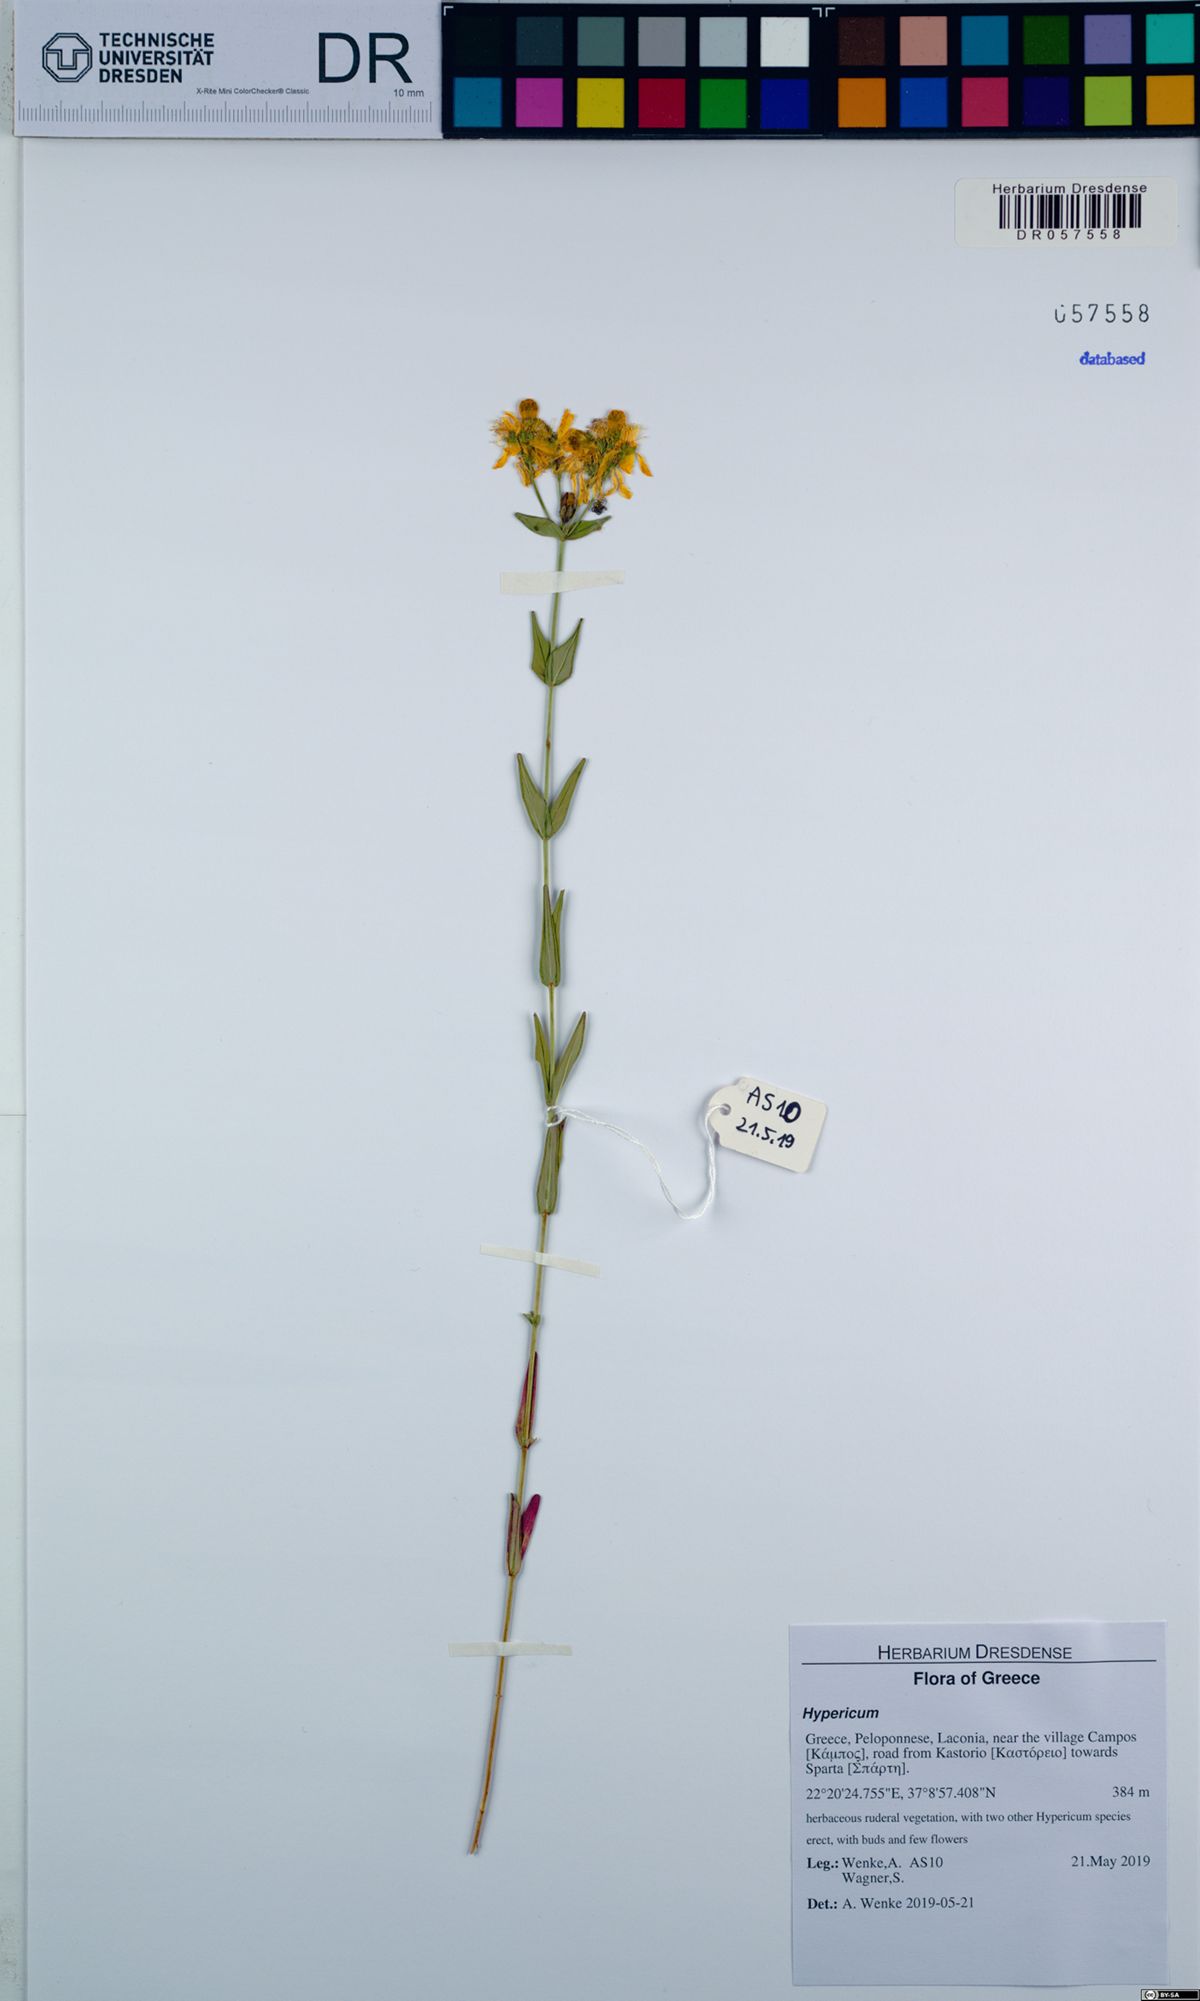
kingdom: Plantae
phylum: Tracheophyta
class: Magnoliopsida
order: Malpighiales
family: Hypericaceae
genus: Hypericum
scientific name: Hypericum perfoliatum
